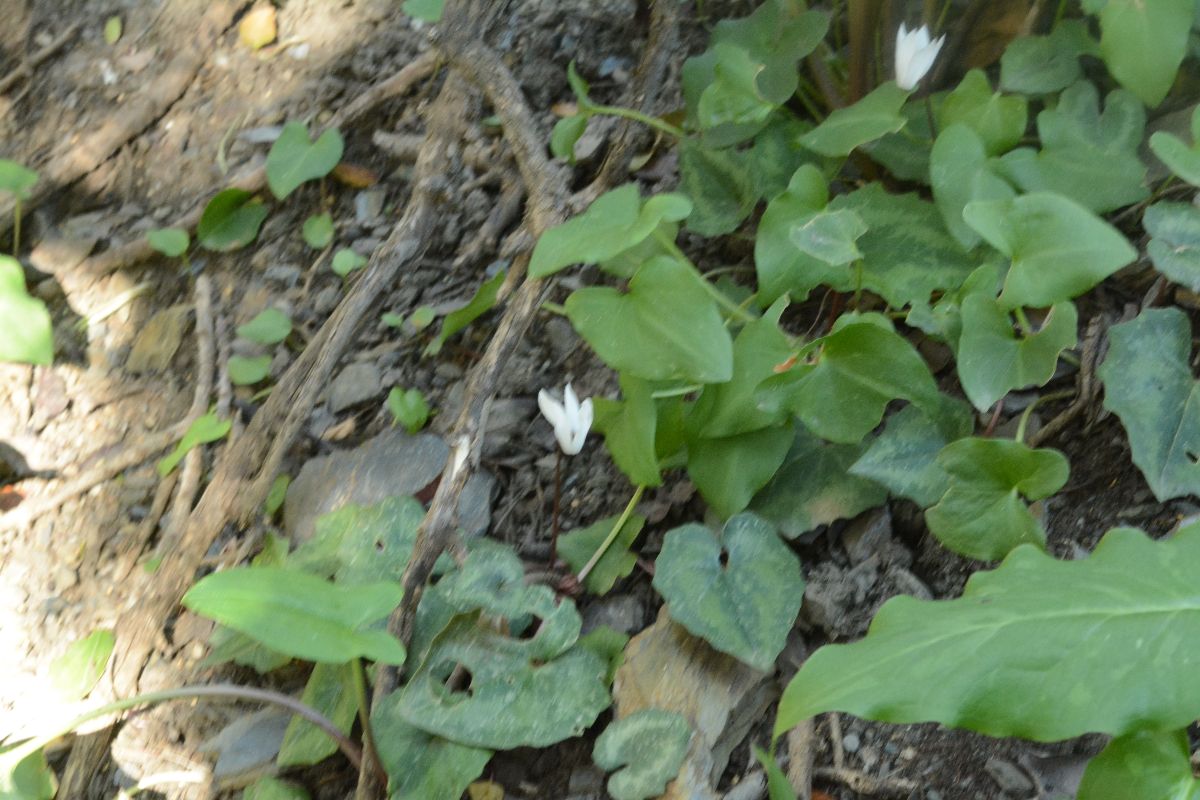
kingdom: Plantae
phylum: Tracheophyta
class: Magnoliopsida
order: Ericales
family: Primulaceae
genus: Cyclamen
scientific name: Cyclamen creticum
